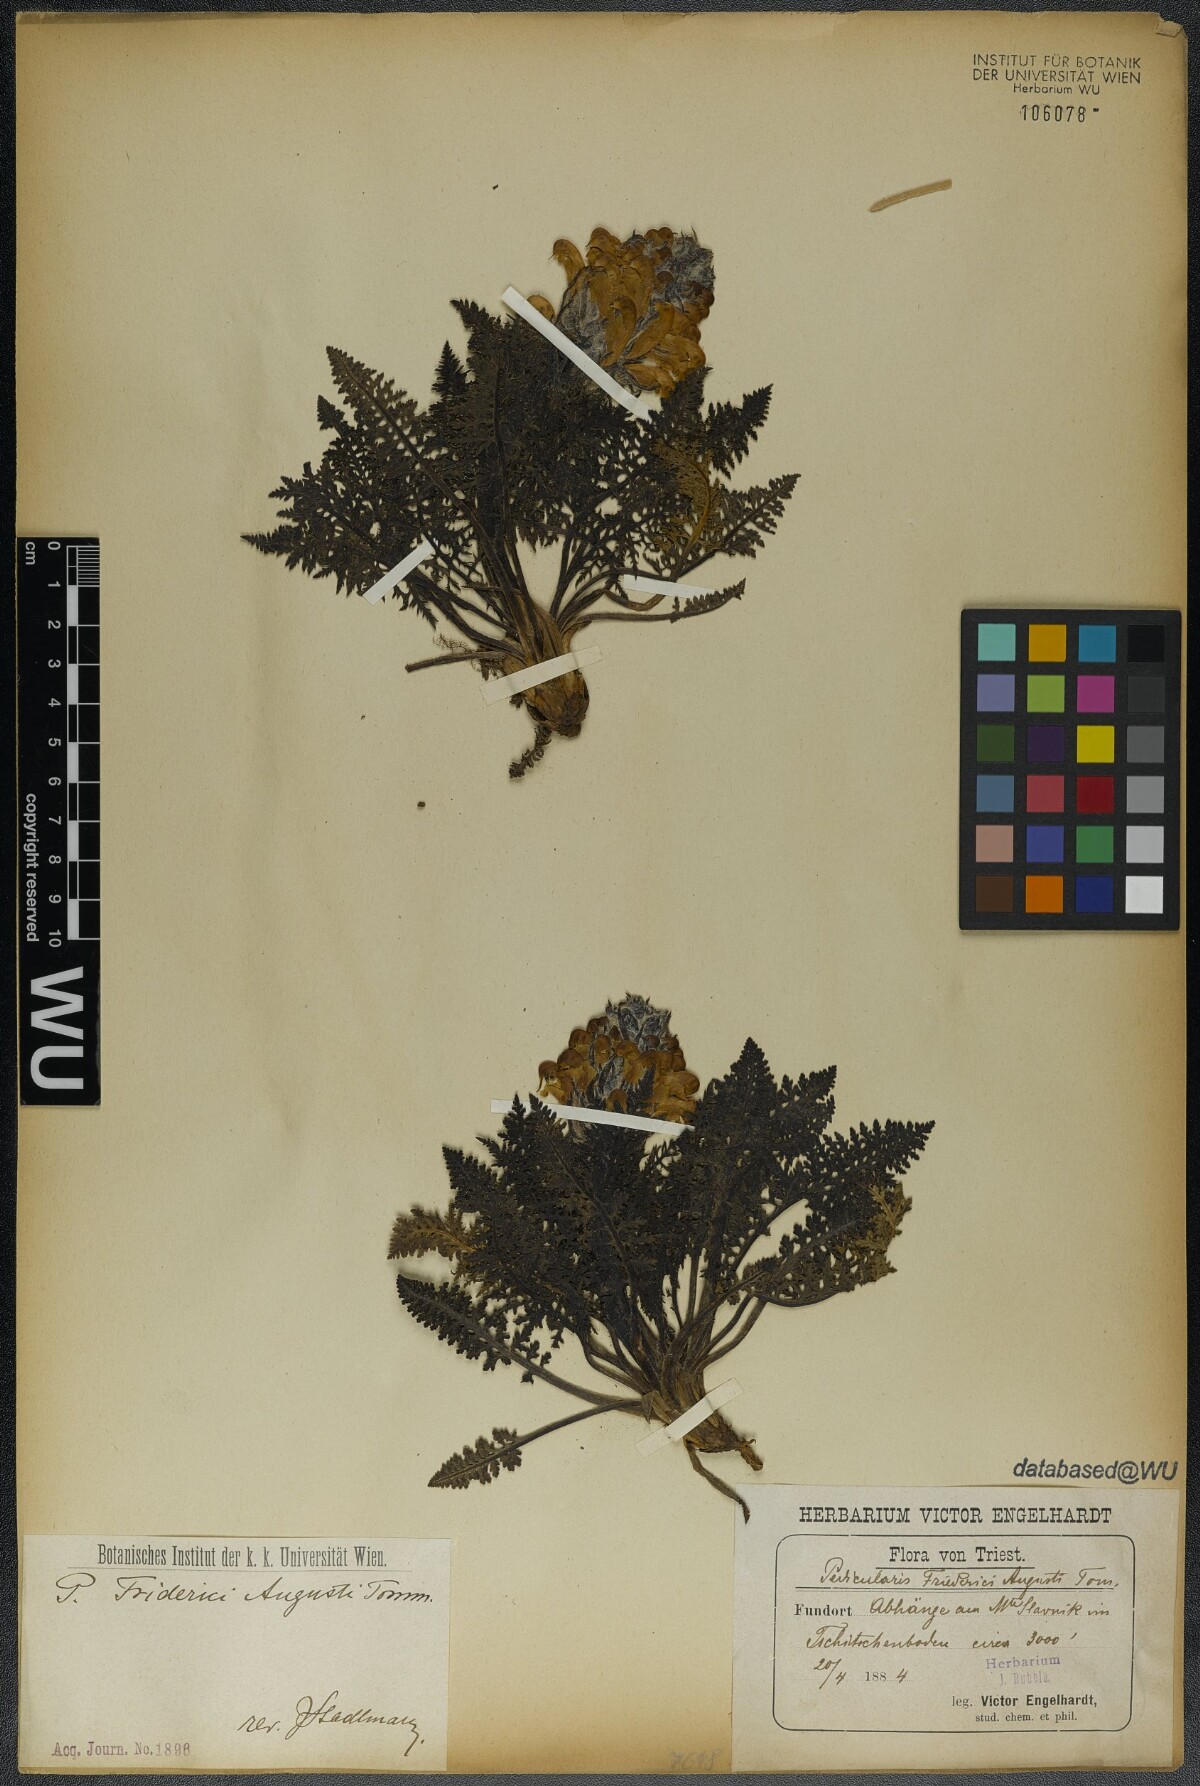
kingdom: Plantae
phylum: Tracheophyta
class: Magnoliopsida
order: Lamiales
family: Orobanchaceae
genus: Pedicularis
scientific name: Pedicularis friderici-augusti
